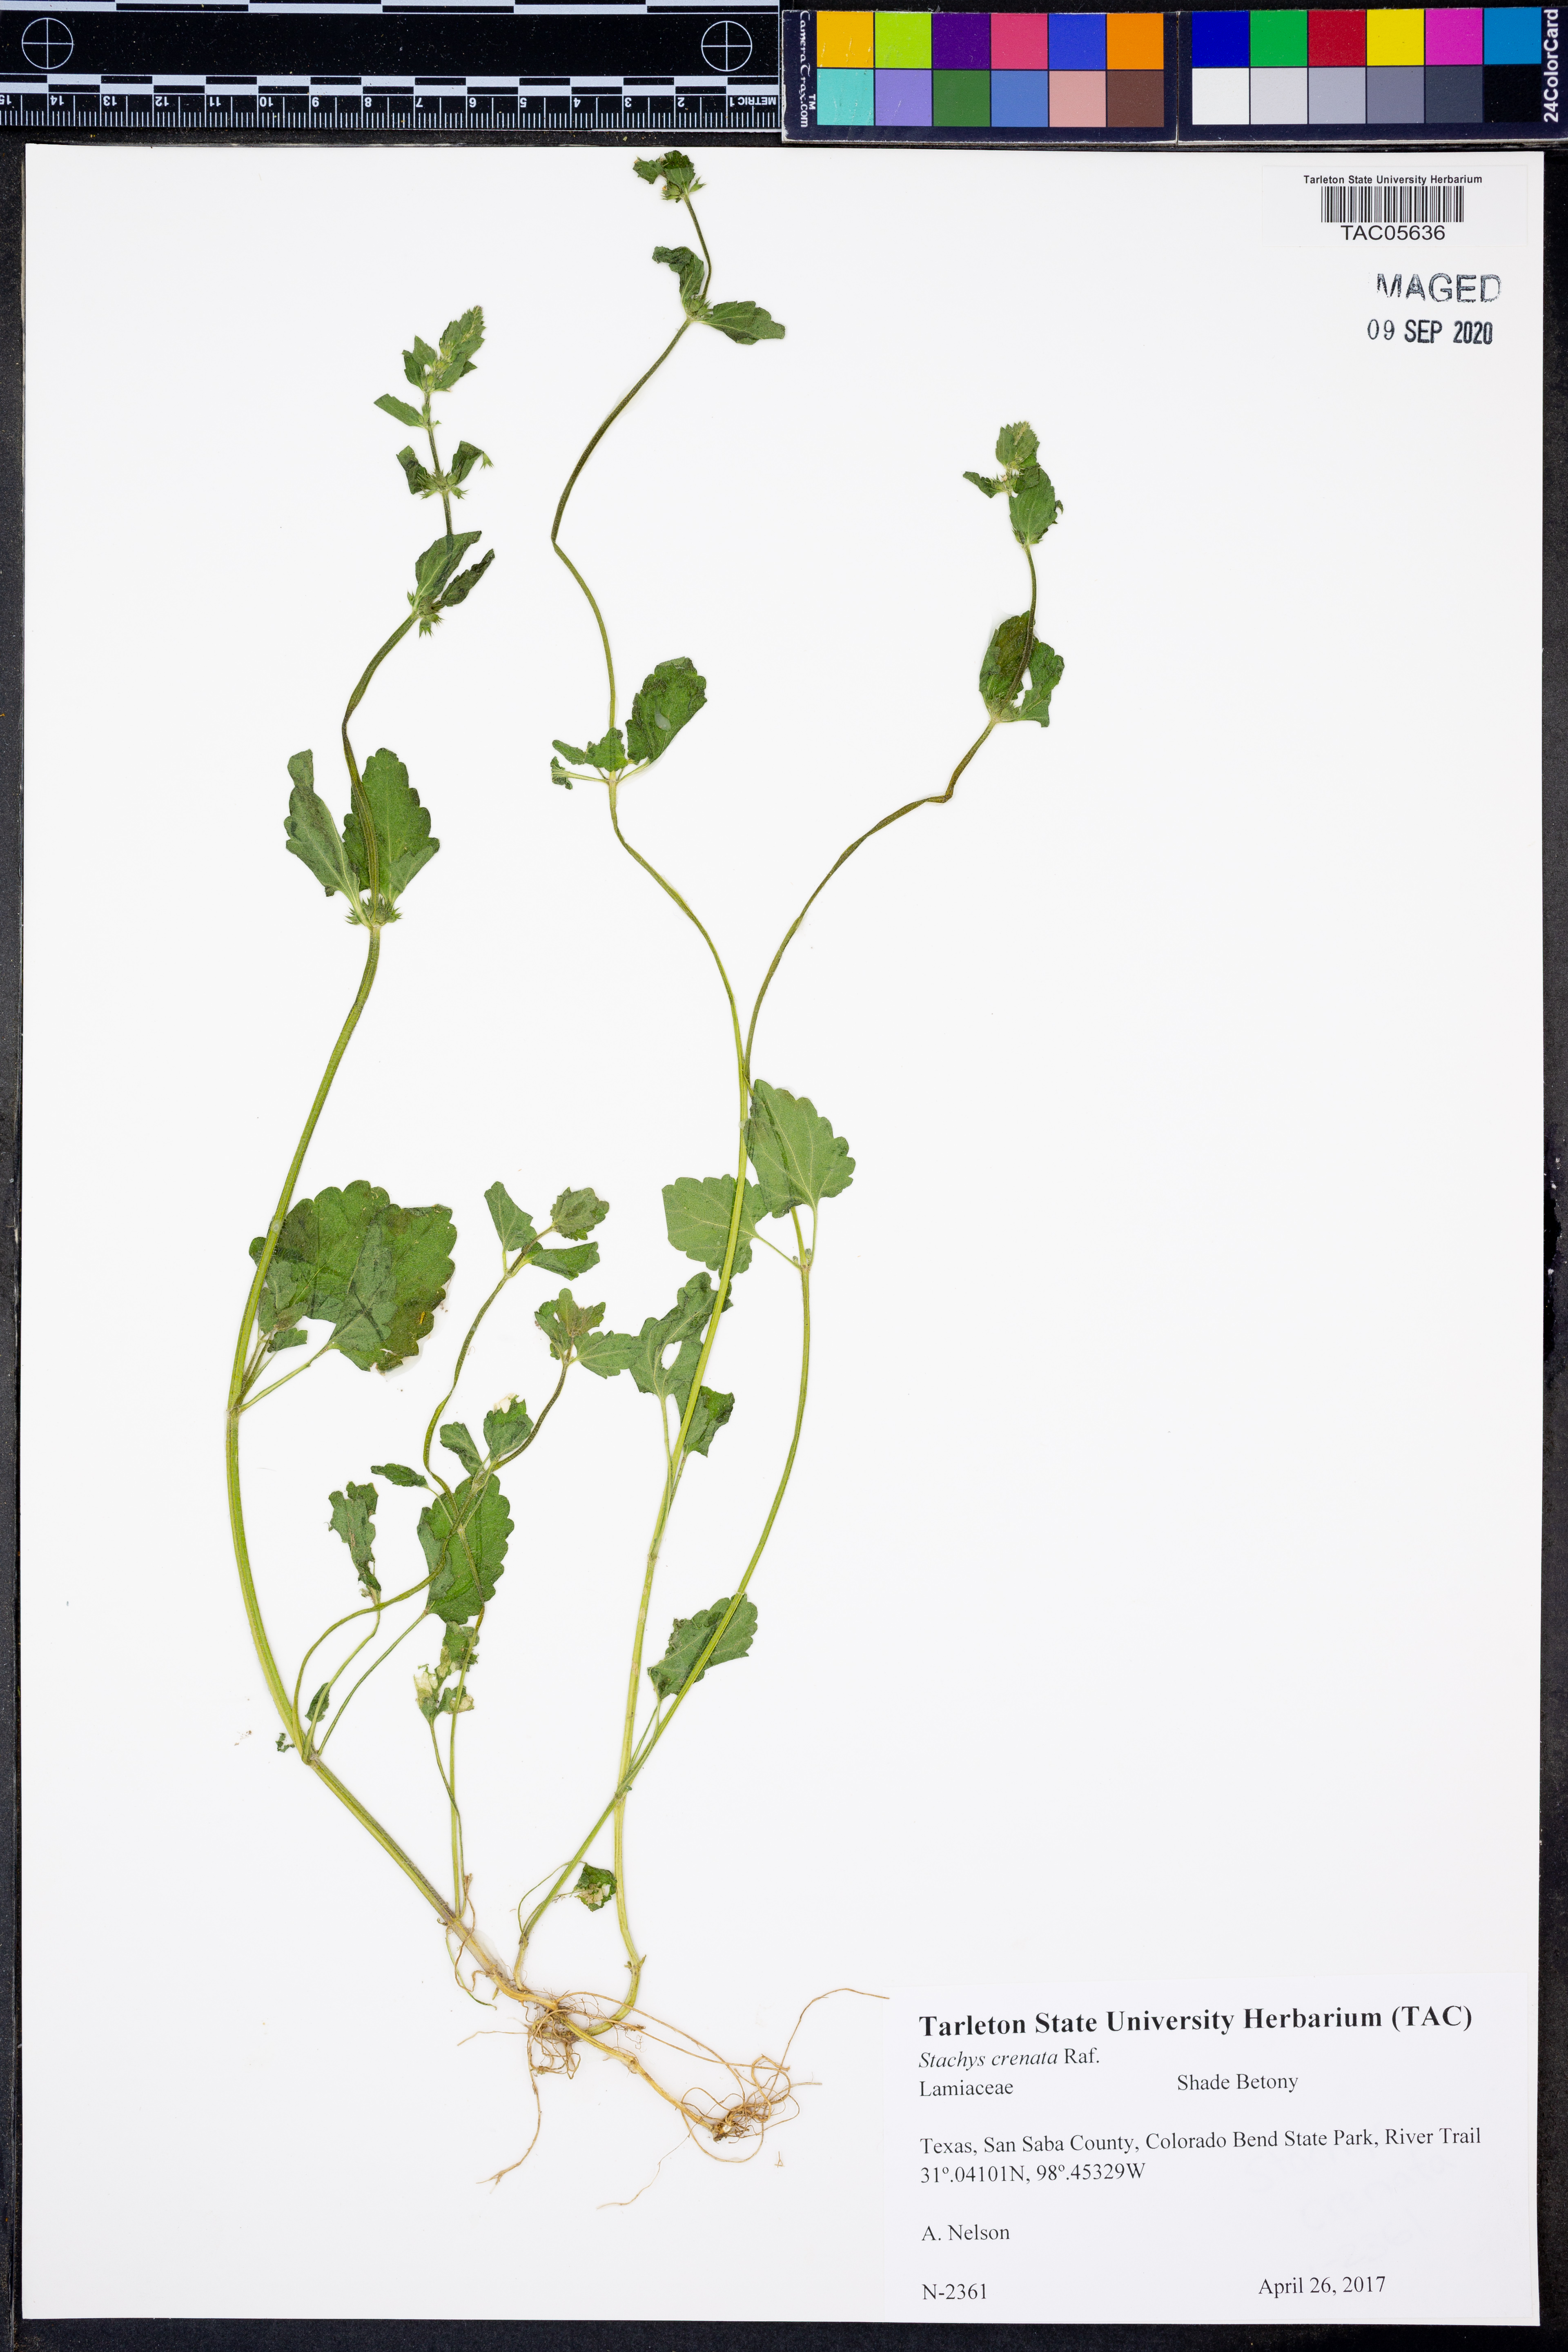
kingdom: Plantae
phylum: Tracheophyta
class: Magnoliopsida
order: Lamiales
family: Lamiaceae
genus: Stachys
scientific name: Stachys agraria
